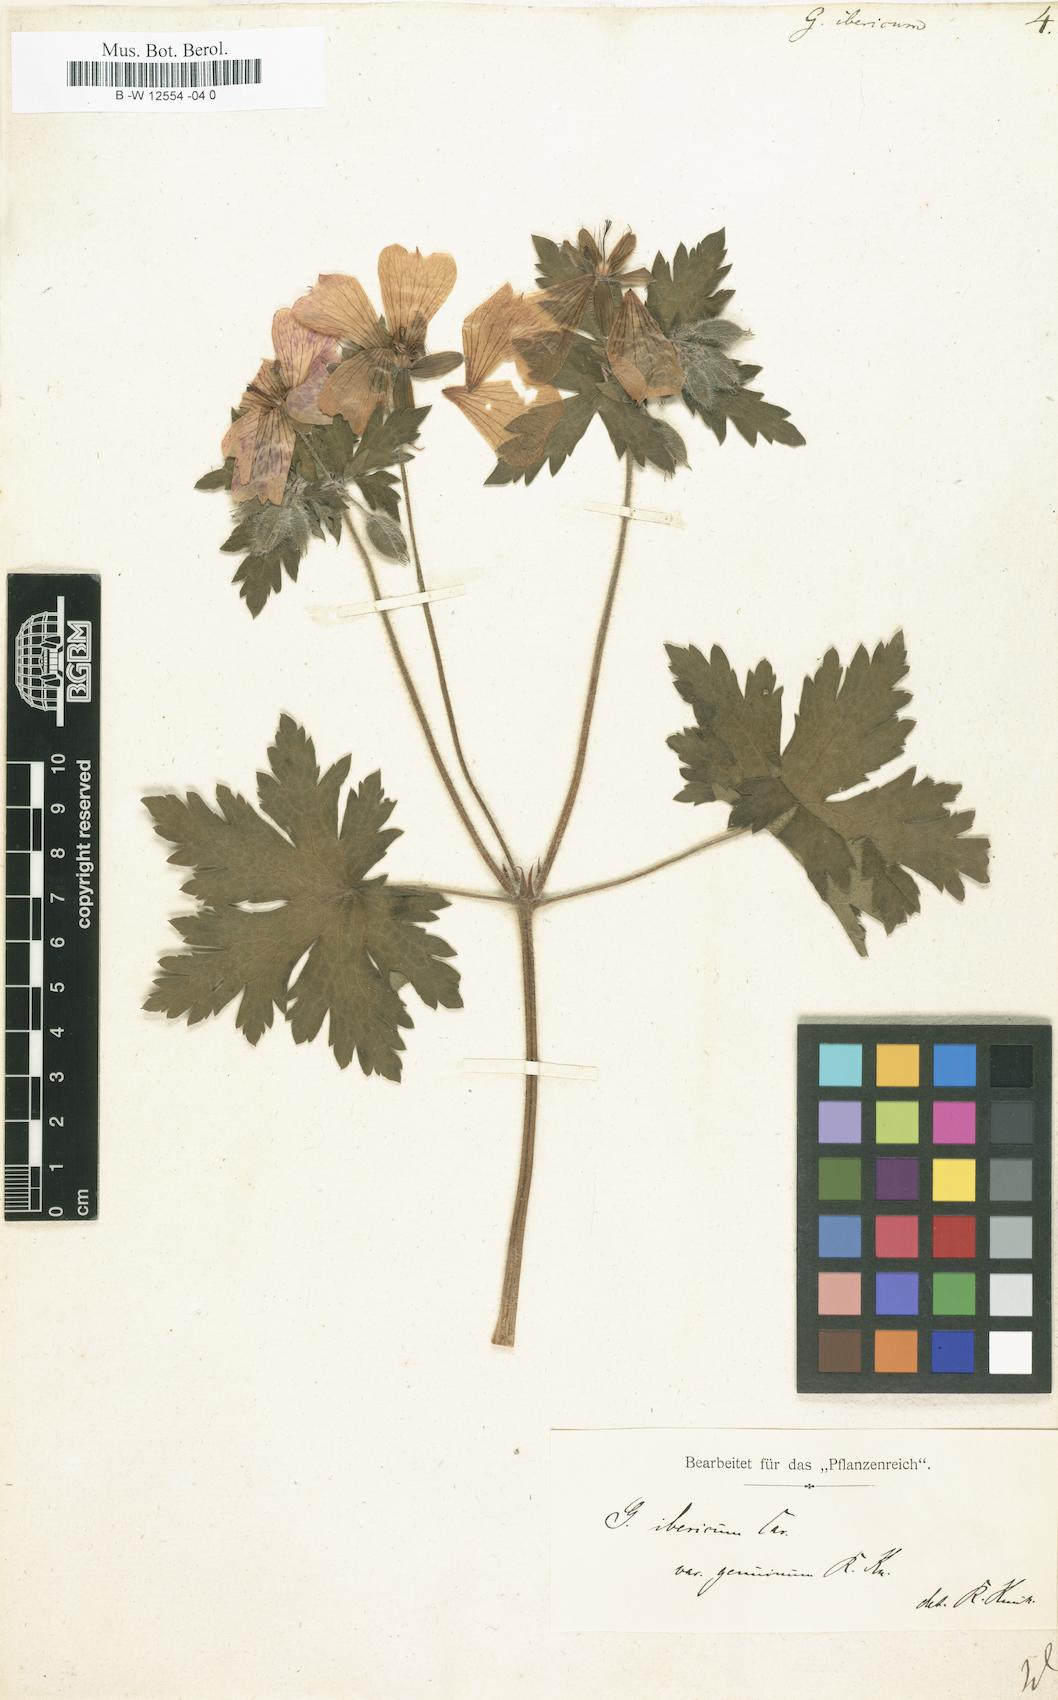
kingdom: Plantae
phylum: Tracheophyta
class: Magnoliopsida
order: Geraniales
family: Geraniaceae
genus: Geranium
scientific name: Geranium ibericum
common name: Caucasian crane's-bill
